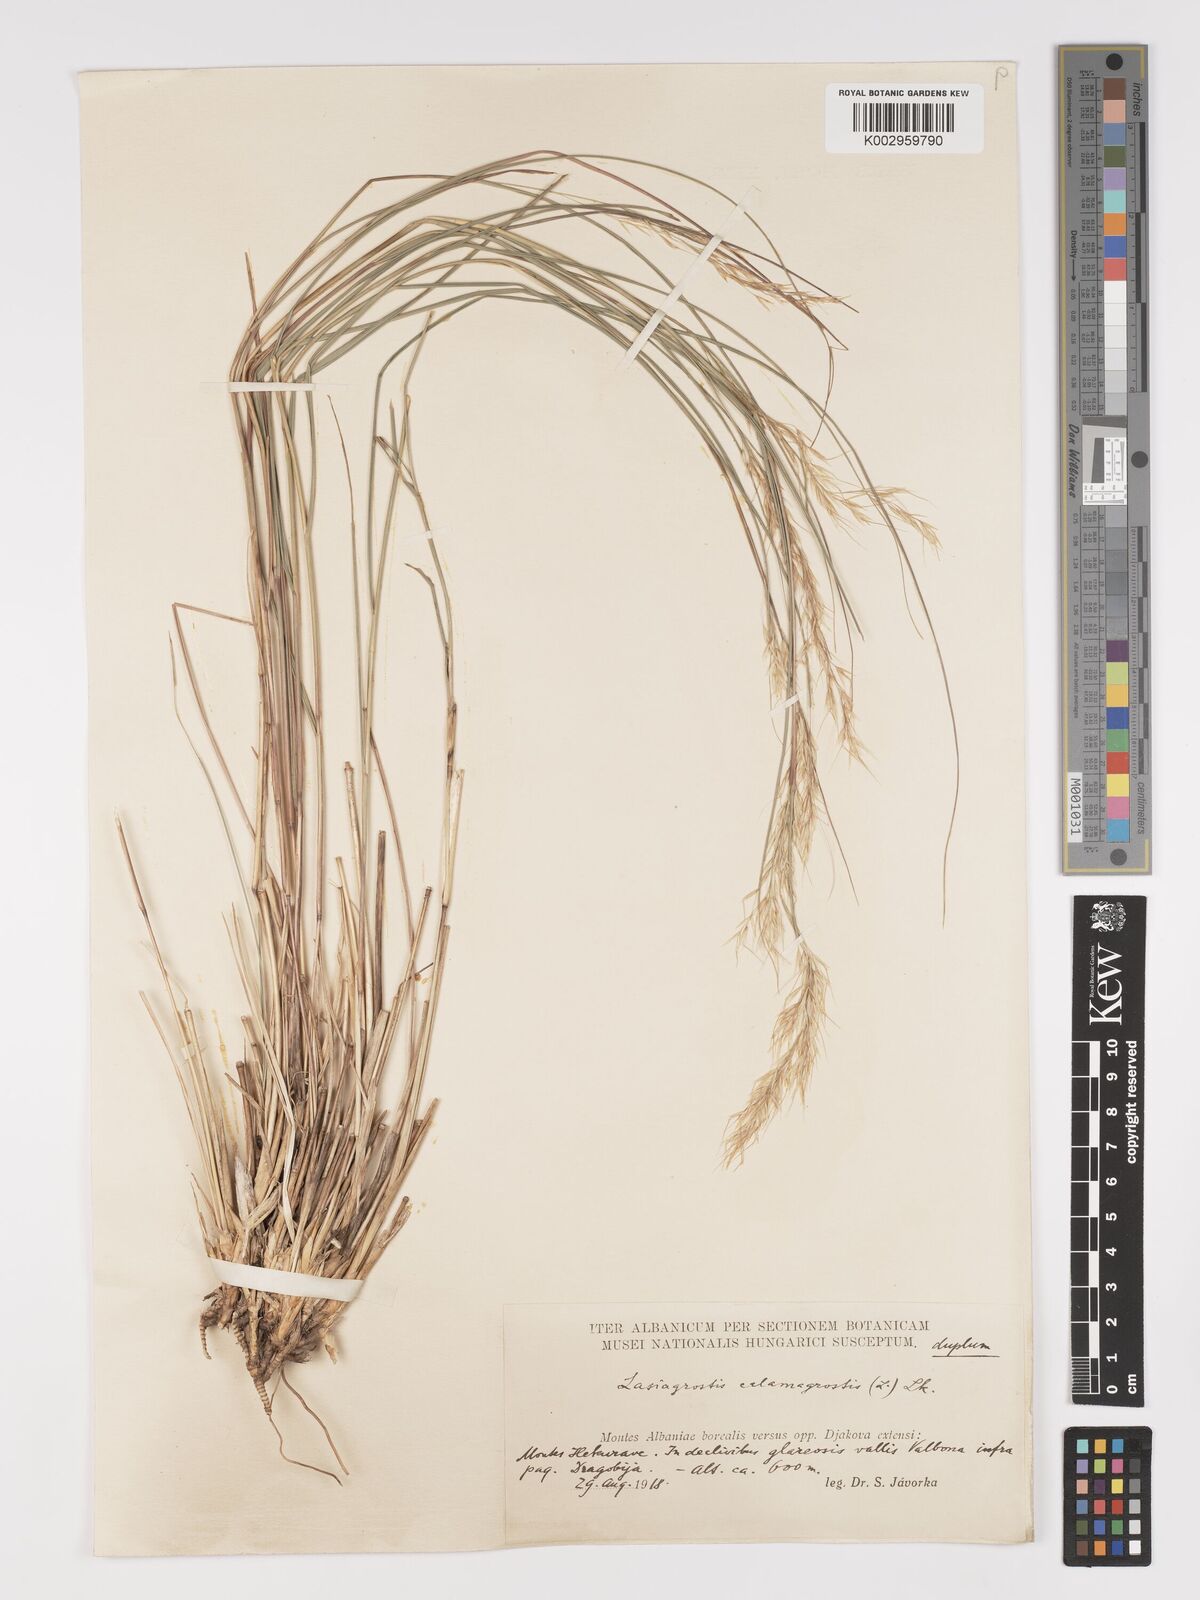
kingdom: Plantae
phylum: Tracheophyta
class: Liliopsida
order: Poales
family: Poaceae
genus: Achnatherum
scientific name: Achnatherum calamagrostis
